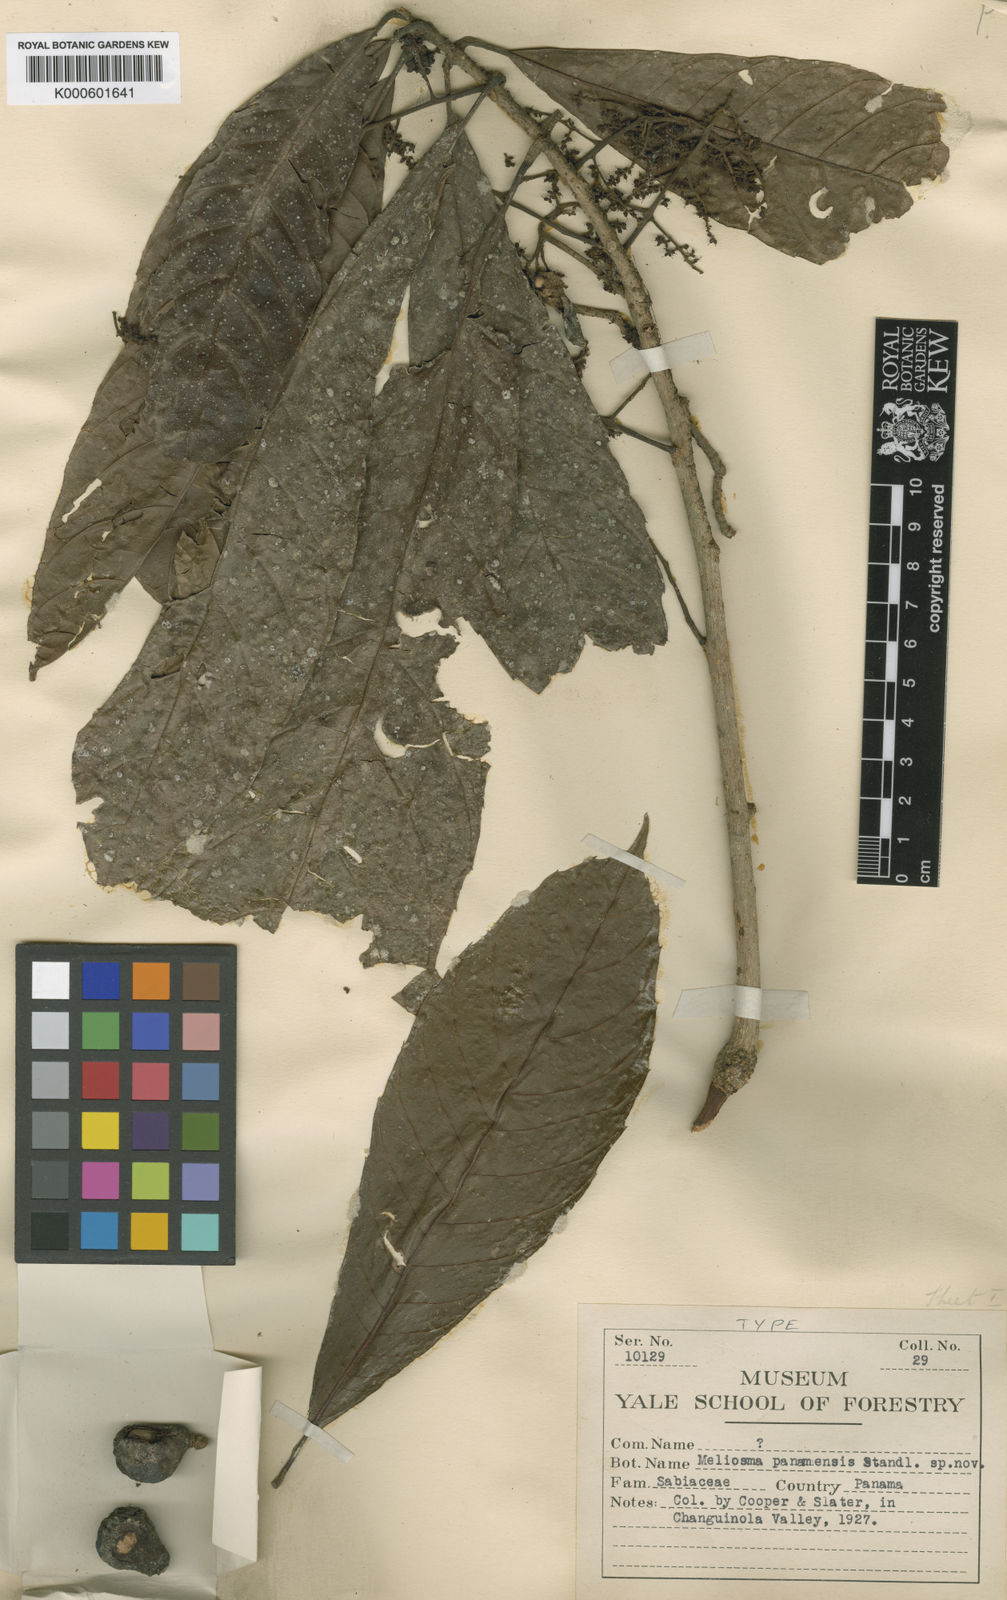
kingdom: Plantae
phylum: Tracheophyta
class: Magnoliopsida
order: Proteales
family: Sabiaceae
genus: Meliosma
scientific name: Meliosma glabrata
